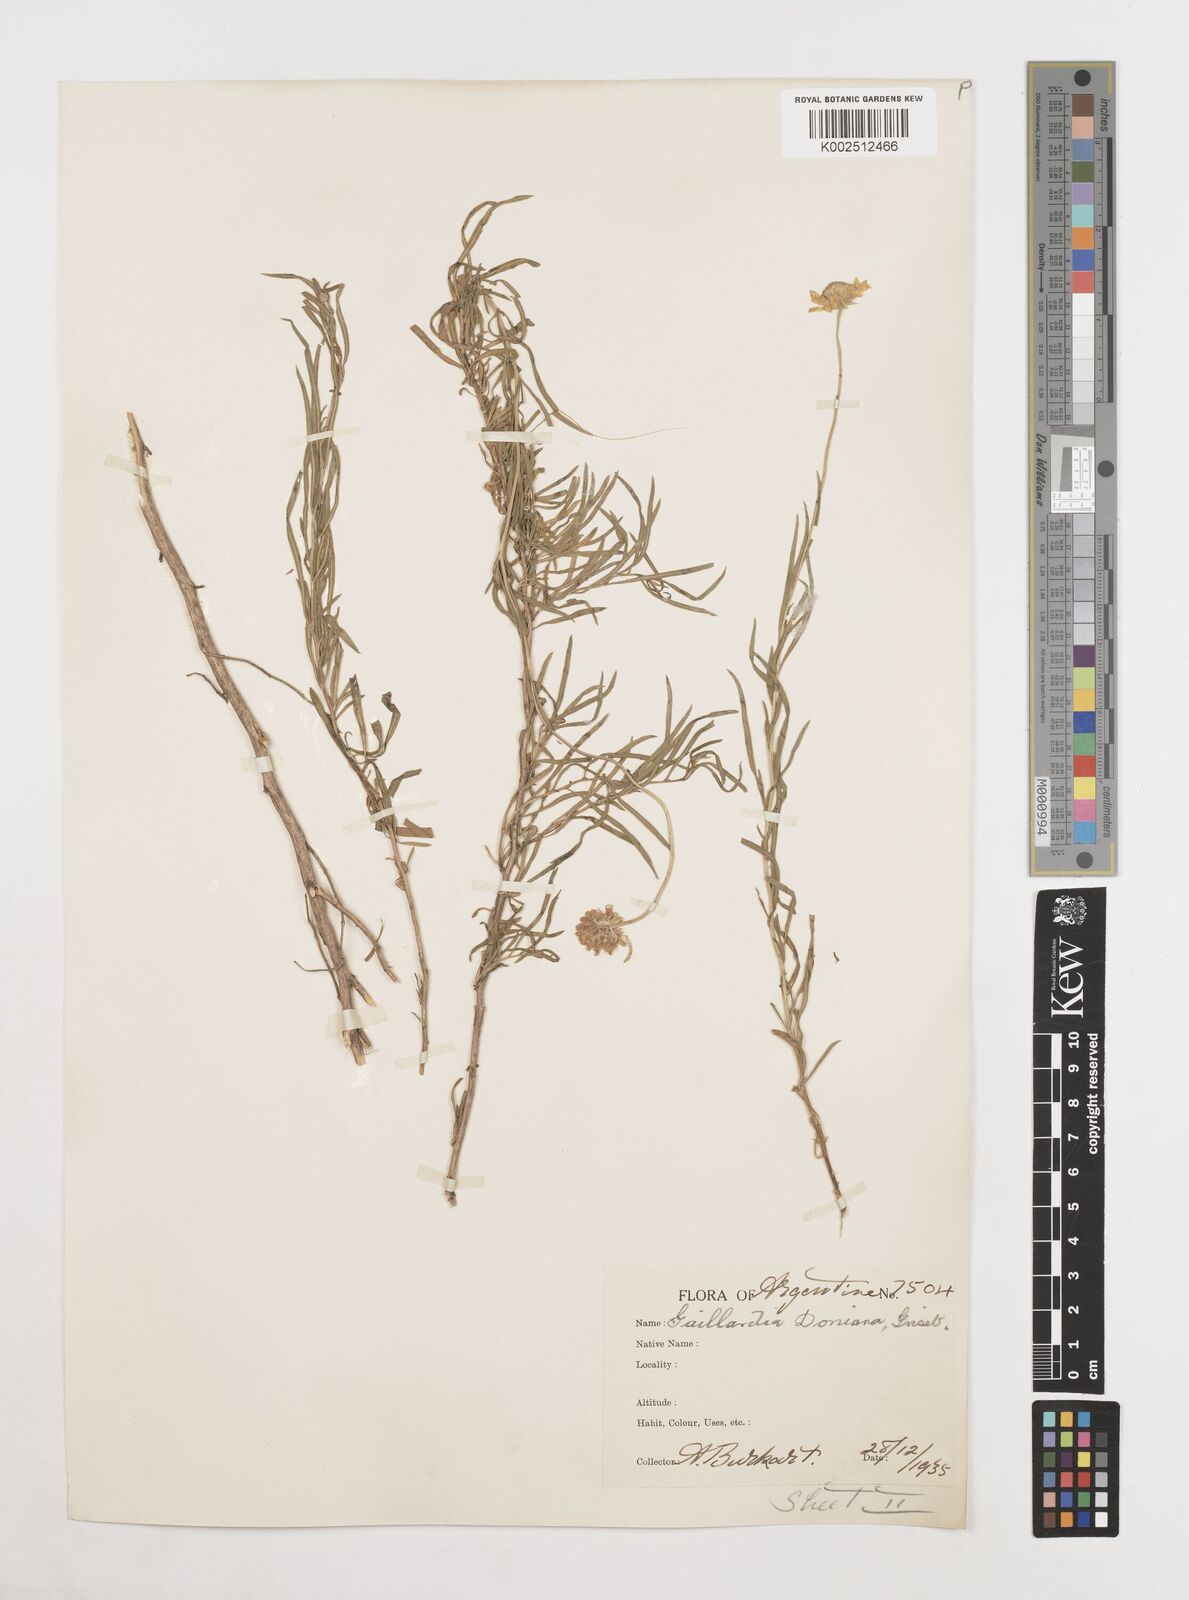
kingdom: Plantae
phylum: Tracheophyta
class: Magnoliopsida
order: Asterales
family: Asteraceae
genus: Gaillardia
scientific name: Gaillardia
